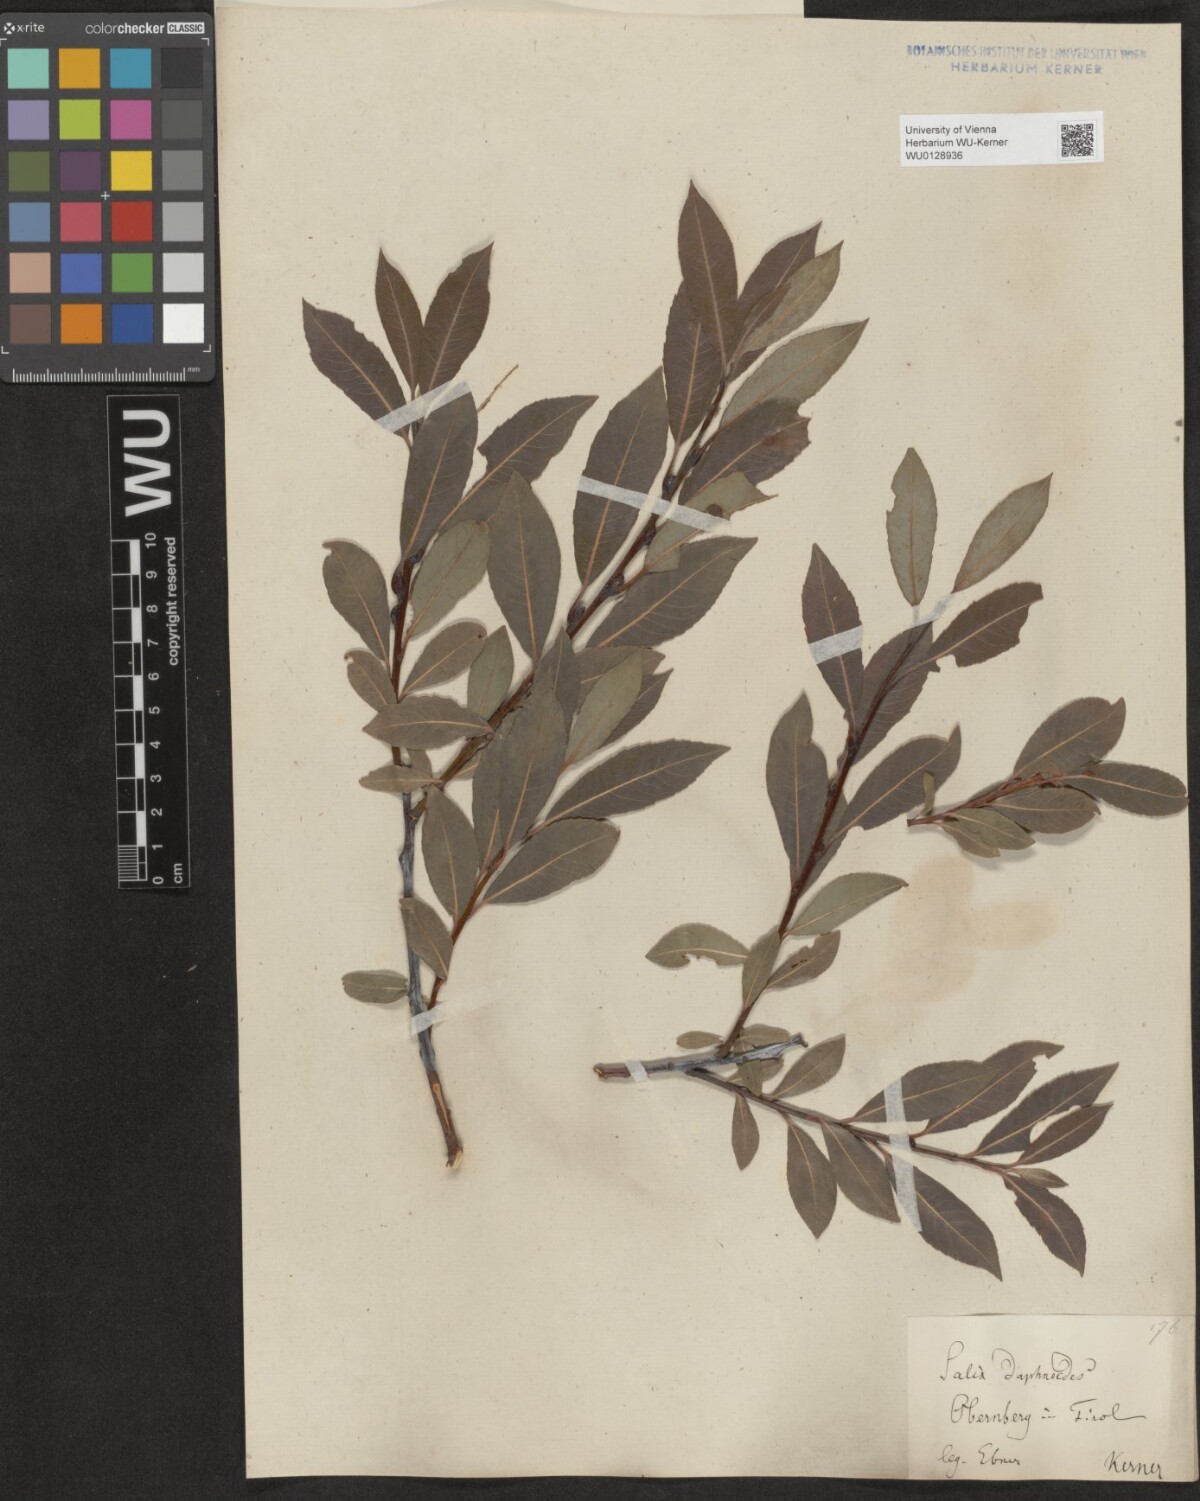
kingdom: Plantae
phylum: Tracheophyta
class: Magnoliopsida
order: Malpighiales
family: Salicaceae
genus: Salix
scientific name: Salix daphnoides
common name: European violet-willow
